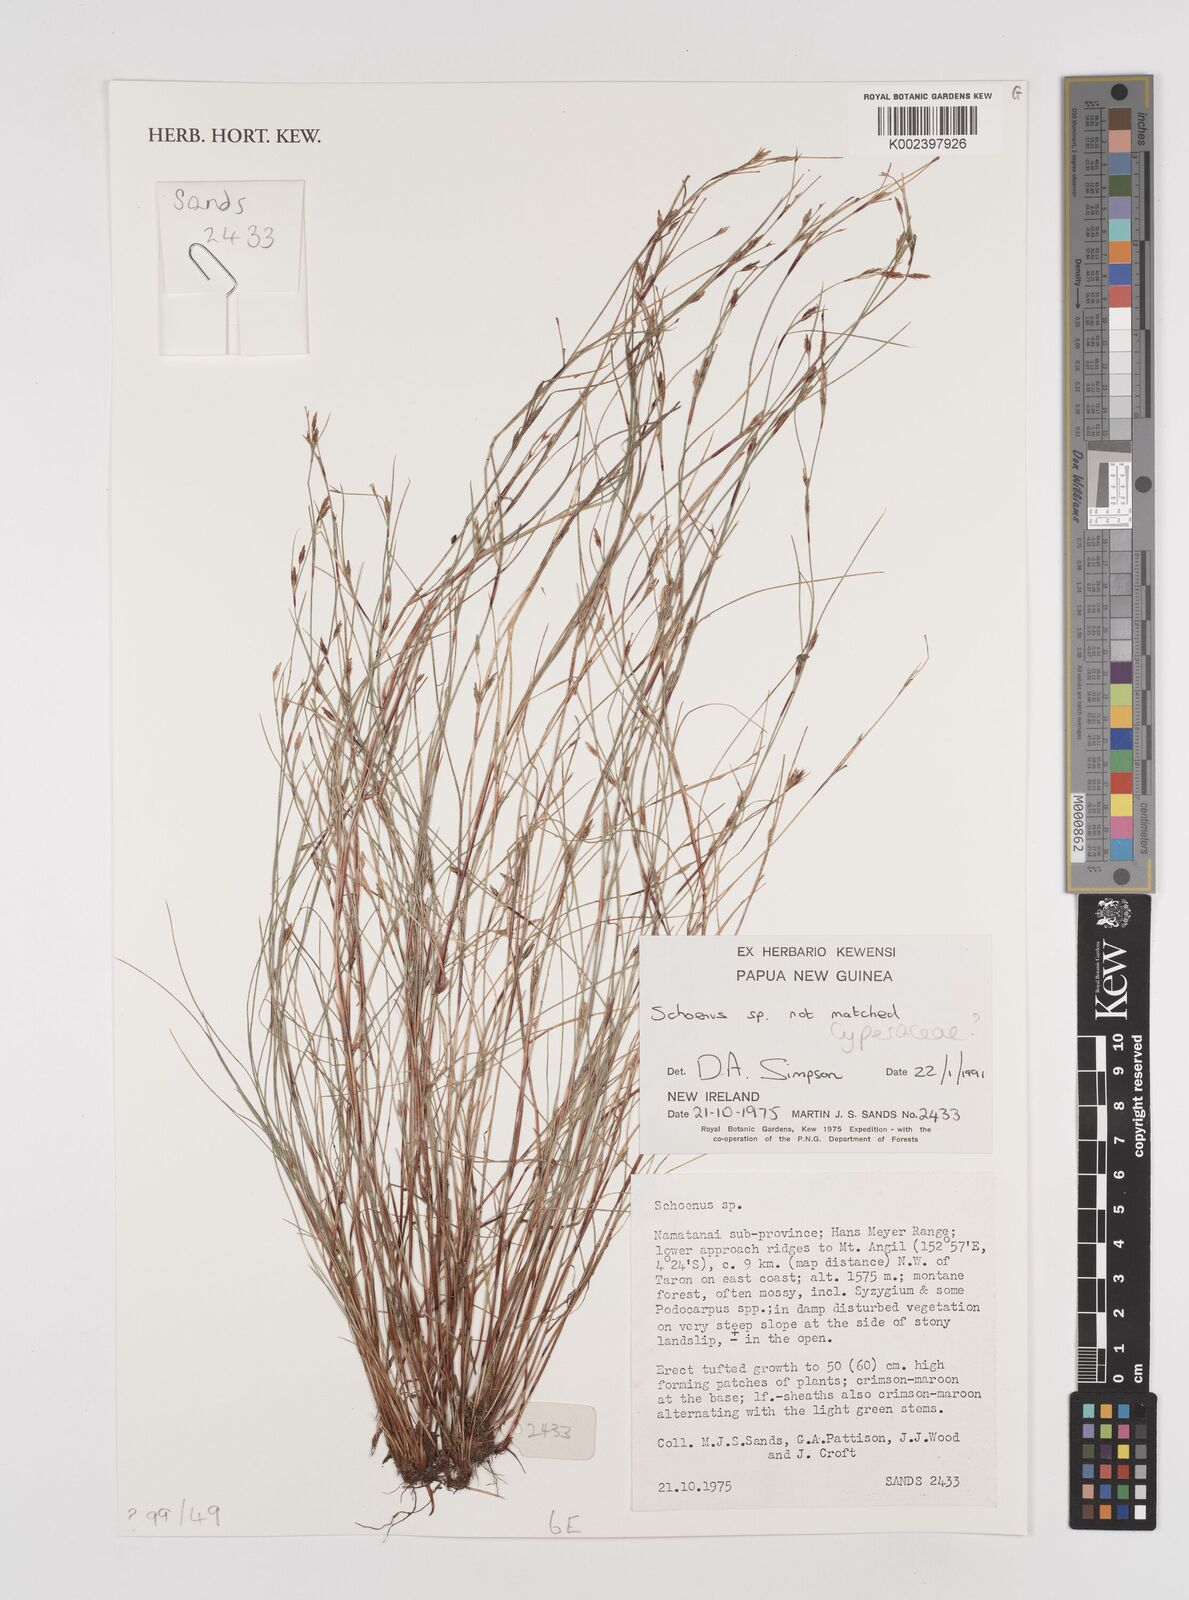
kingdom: Plantae
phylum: Tracheophyta
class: Liliopsida
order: Poales
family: Cyperaceae
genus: Schoenus
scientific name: Schoenus
